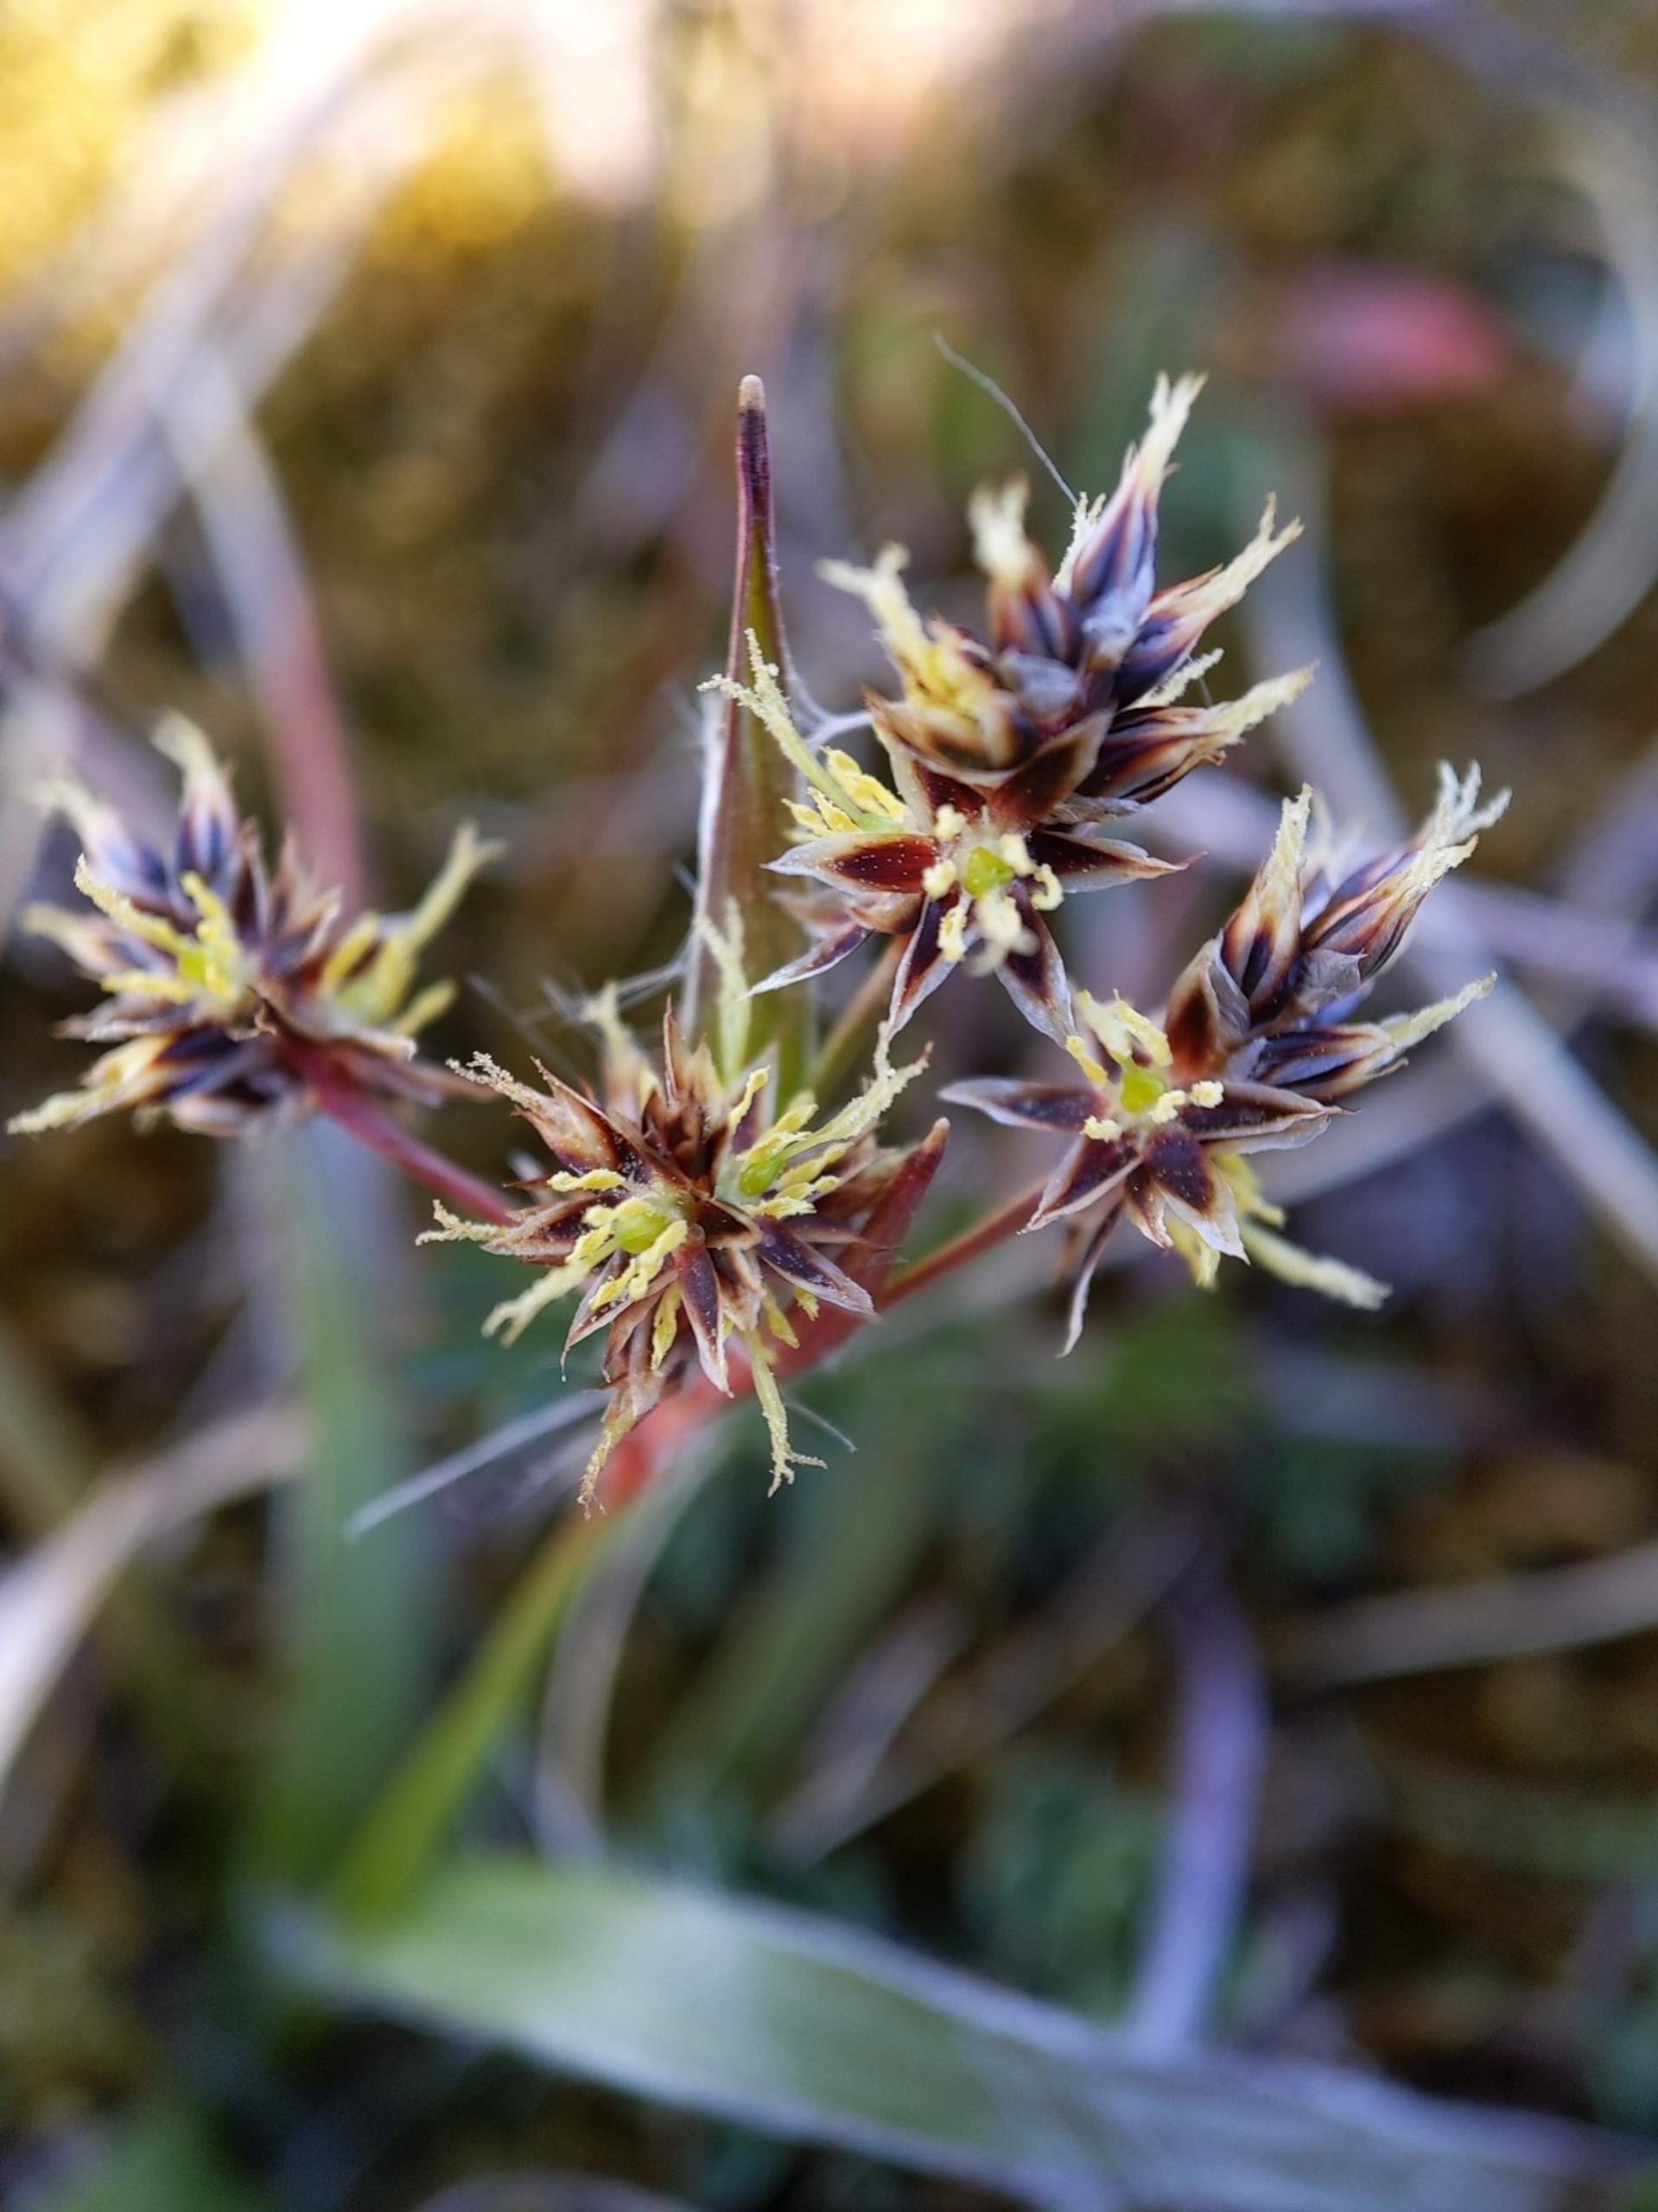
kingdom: Plantae
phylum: Tracheophyta
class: Liliopsida
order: Poales
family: Juncaceae
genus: Luzula
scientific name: Luzula campestris
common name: Mark-frytle
